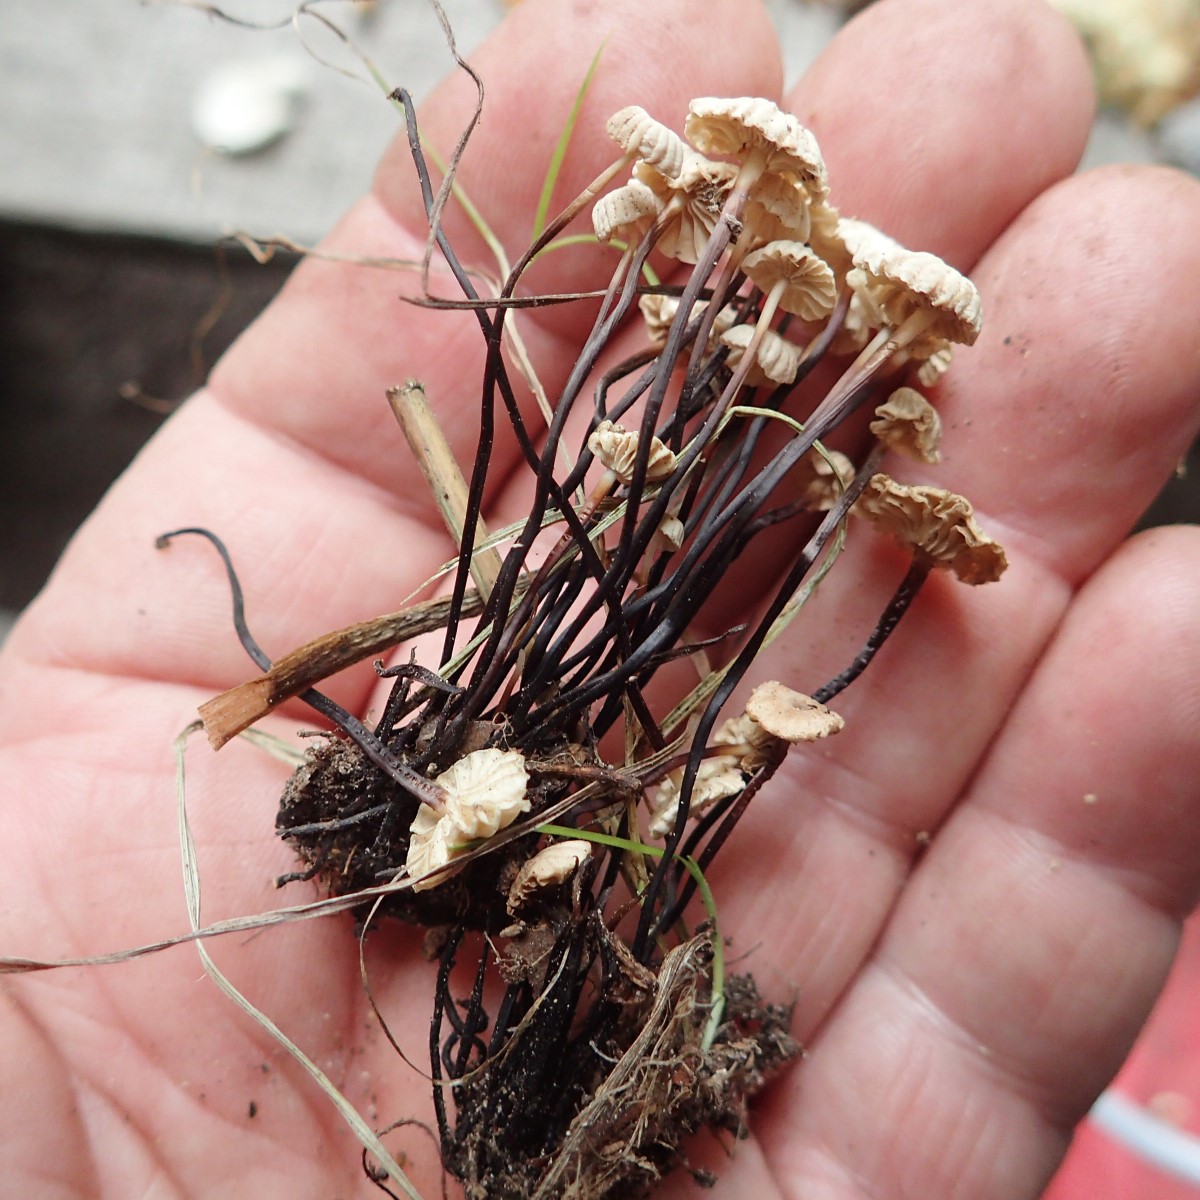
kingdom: Fungi
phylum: Basidiomycota
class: Agaricomycetes
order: Agaricales
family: Marasmiaceae
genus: Marasmius
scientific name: Marasmius rotula
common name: hjul-bruskhat
